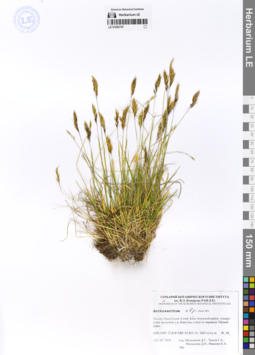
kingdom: Plantae
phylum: Tracheophyta
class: Liliopsida
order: Poales
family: Poaceae
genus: Anthoxanthum
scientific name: Anthoxanthum nipponicum
